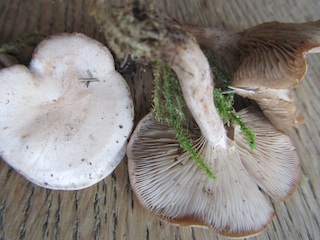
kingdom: Fungi
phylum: Basidiomycota
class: Agaricomycetes
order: Agaricales
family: Tricholomataceae
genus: Clitocybe
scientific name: Clitocybe rivulosa
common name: eng-tragthat
